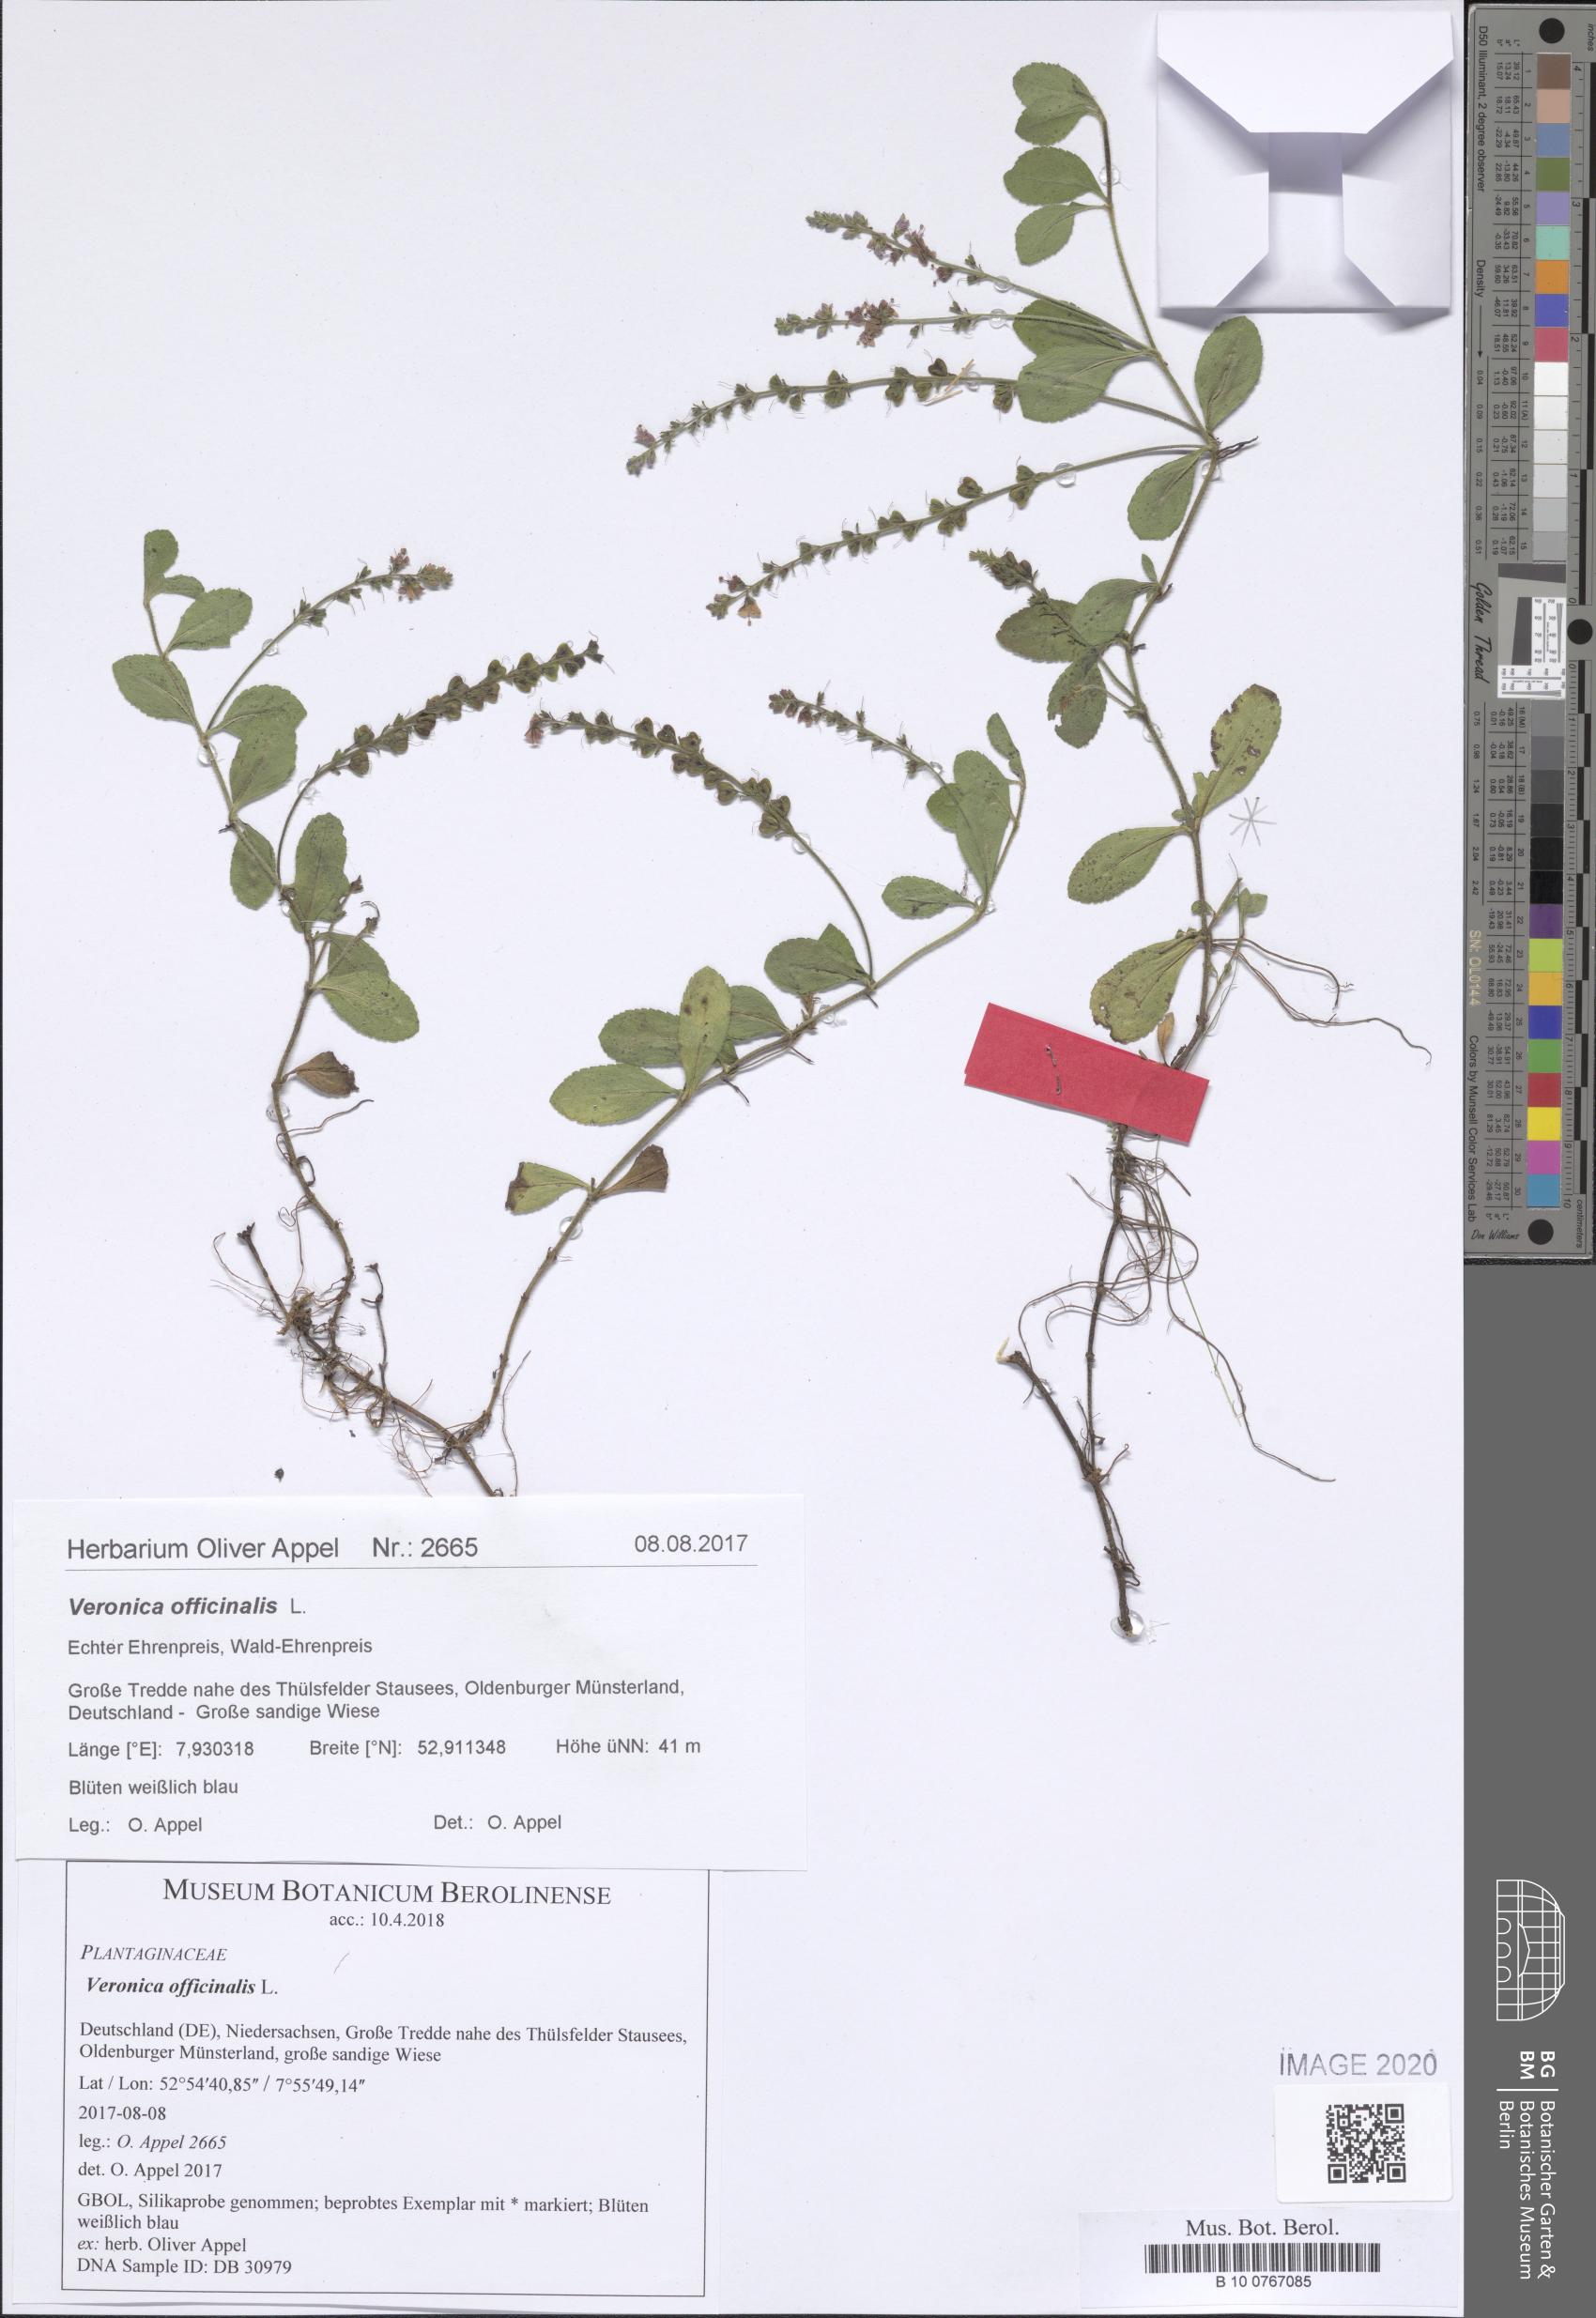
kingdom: Plantae
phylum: Tracheophyta
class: Magnoliopsida
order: Lamiales
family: Plantaginaceae
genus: Veronica
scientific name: Veronica officinalis
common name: Common speedwell
